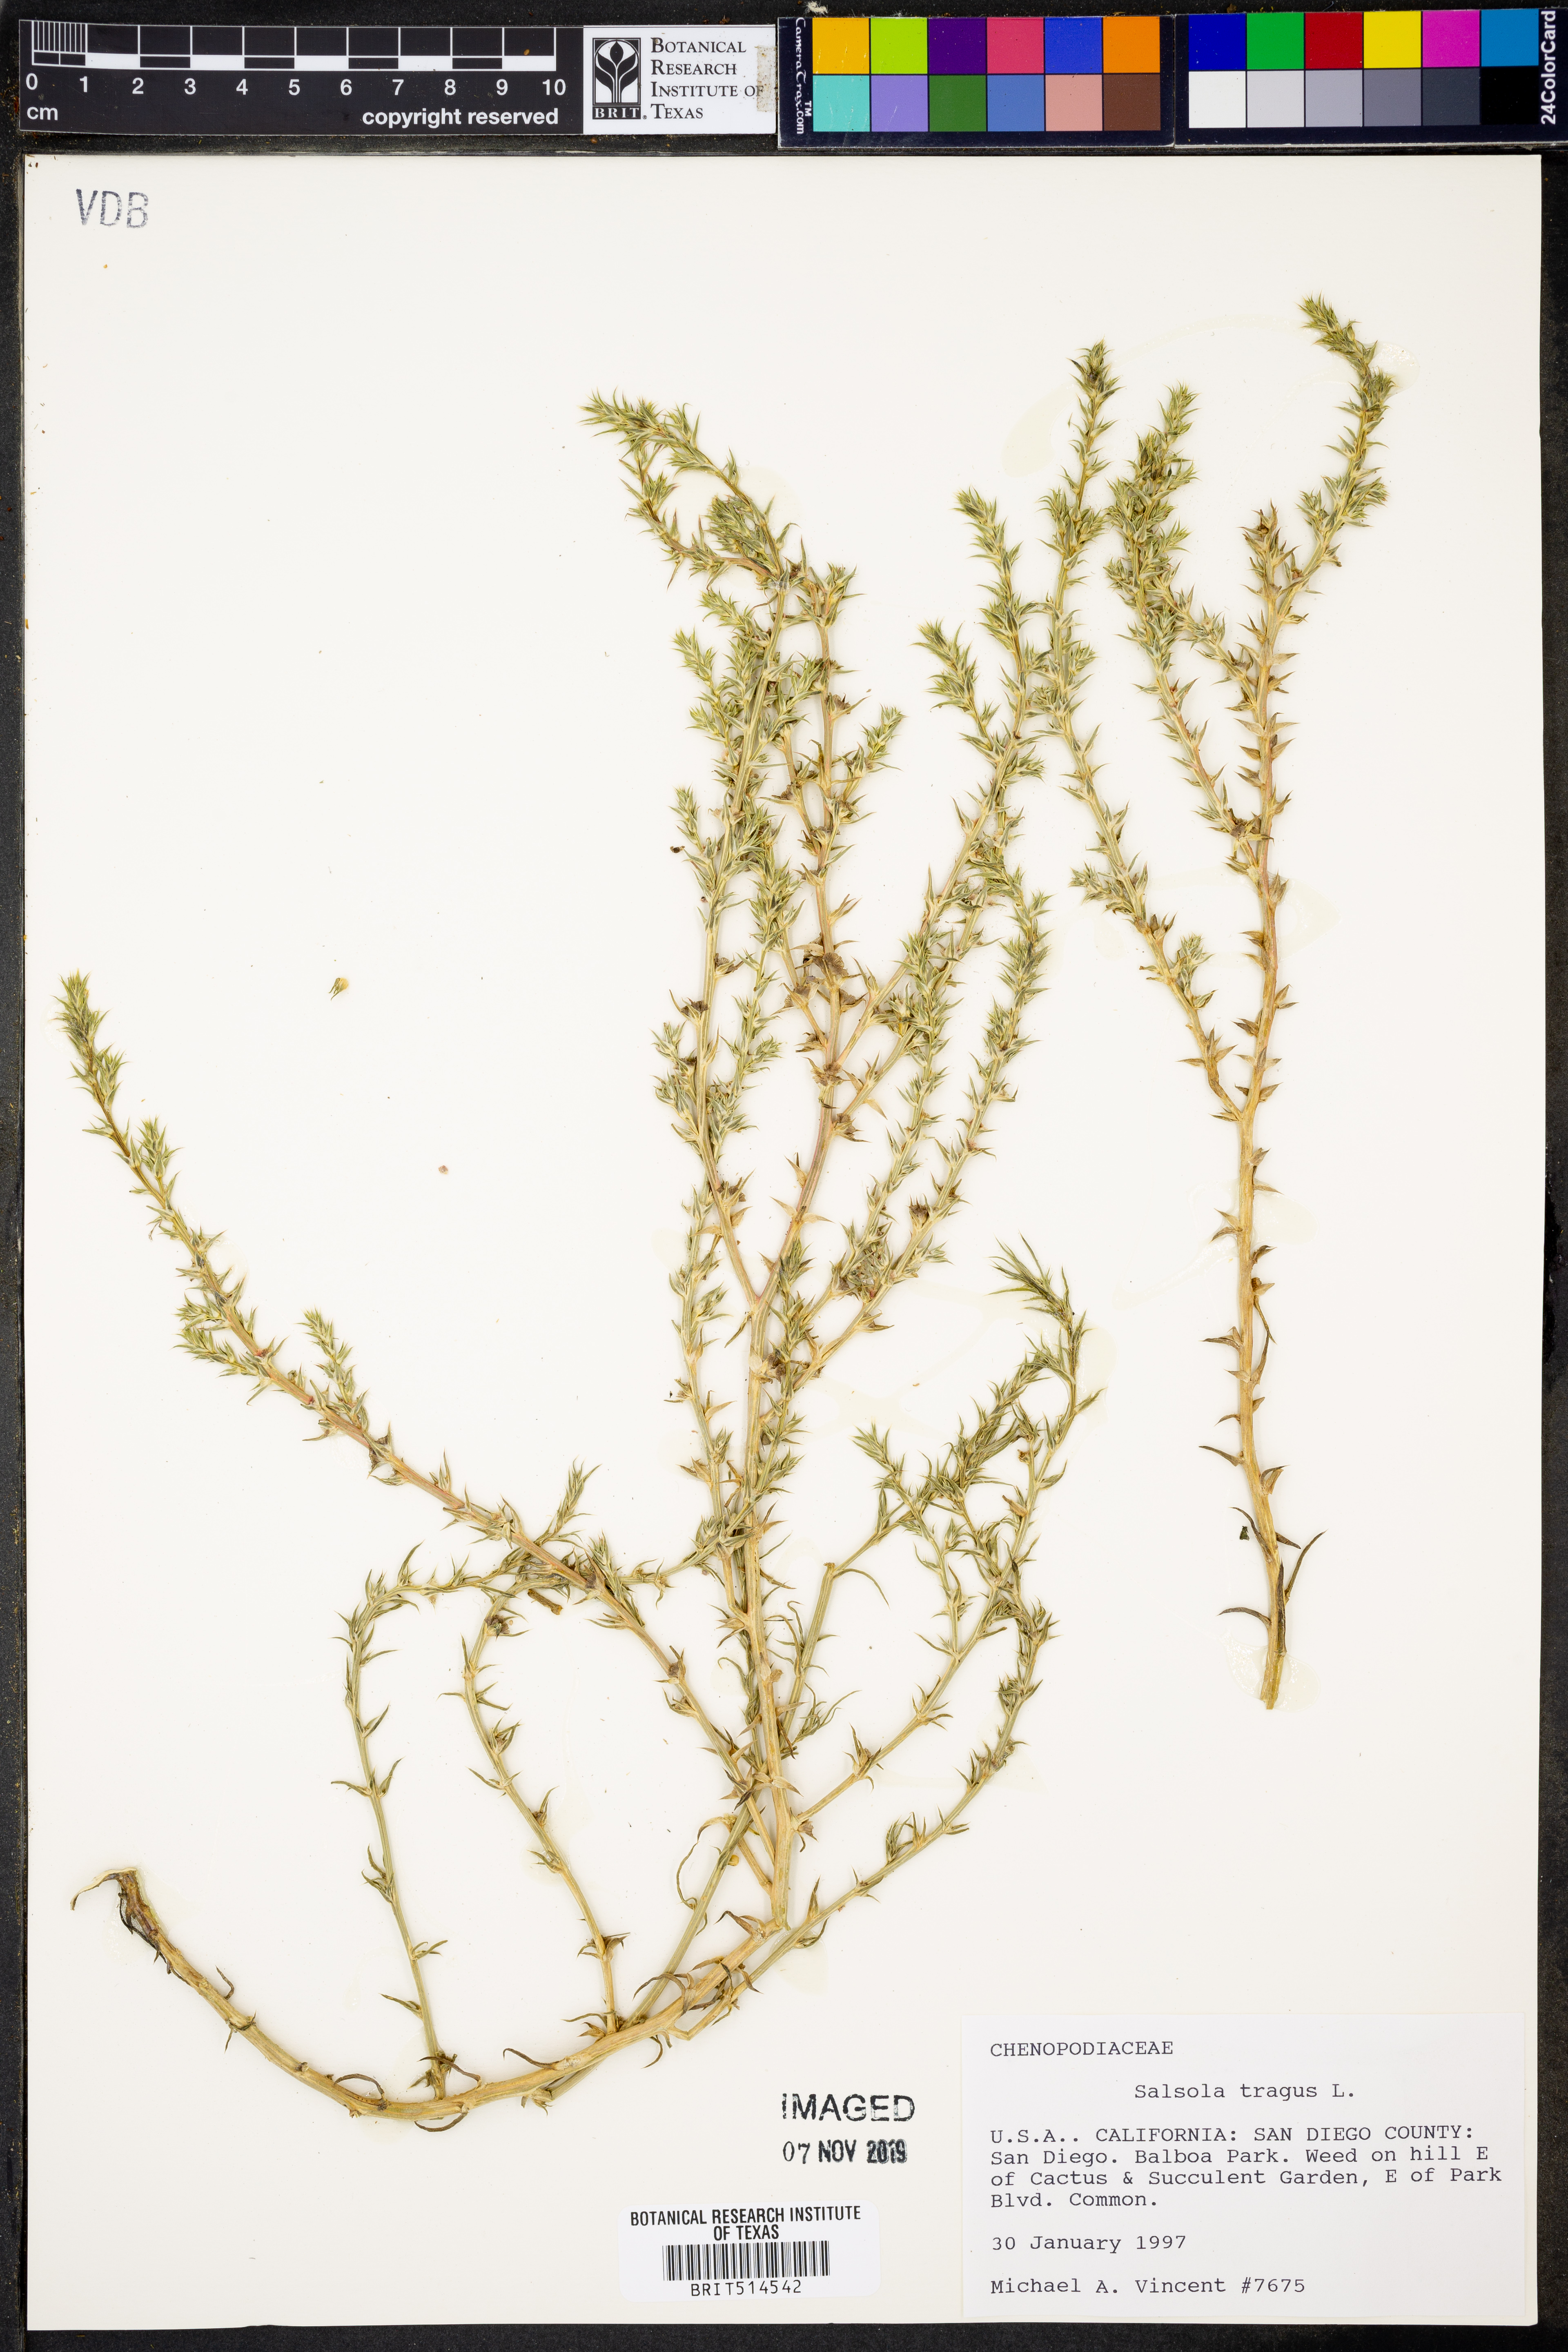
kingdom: Plantae
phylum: Tracheophyta
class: Magnoliopsida
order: Caryophyllales
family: Amaranthaceae
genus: Salsola
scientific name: Salsola tragus
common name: Prickly russian thistle
